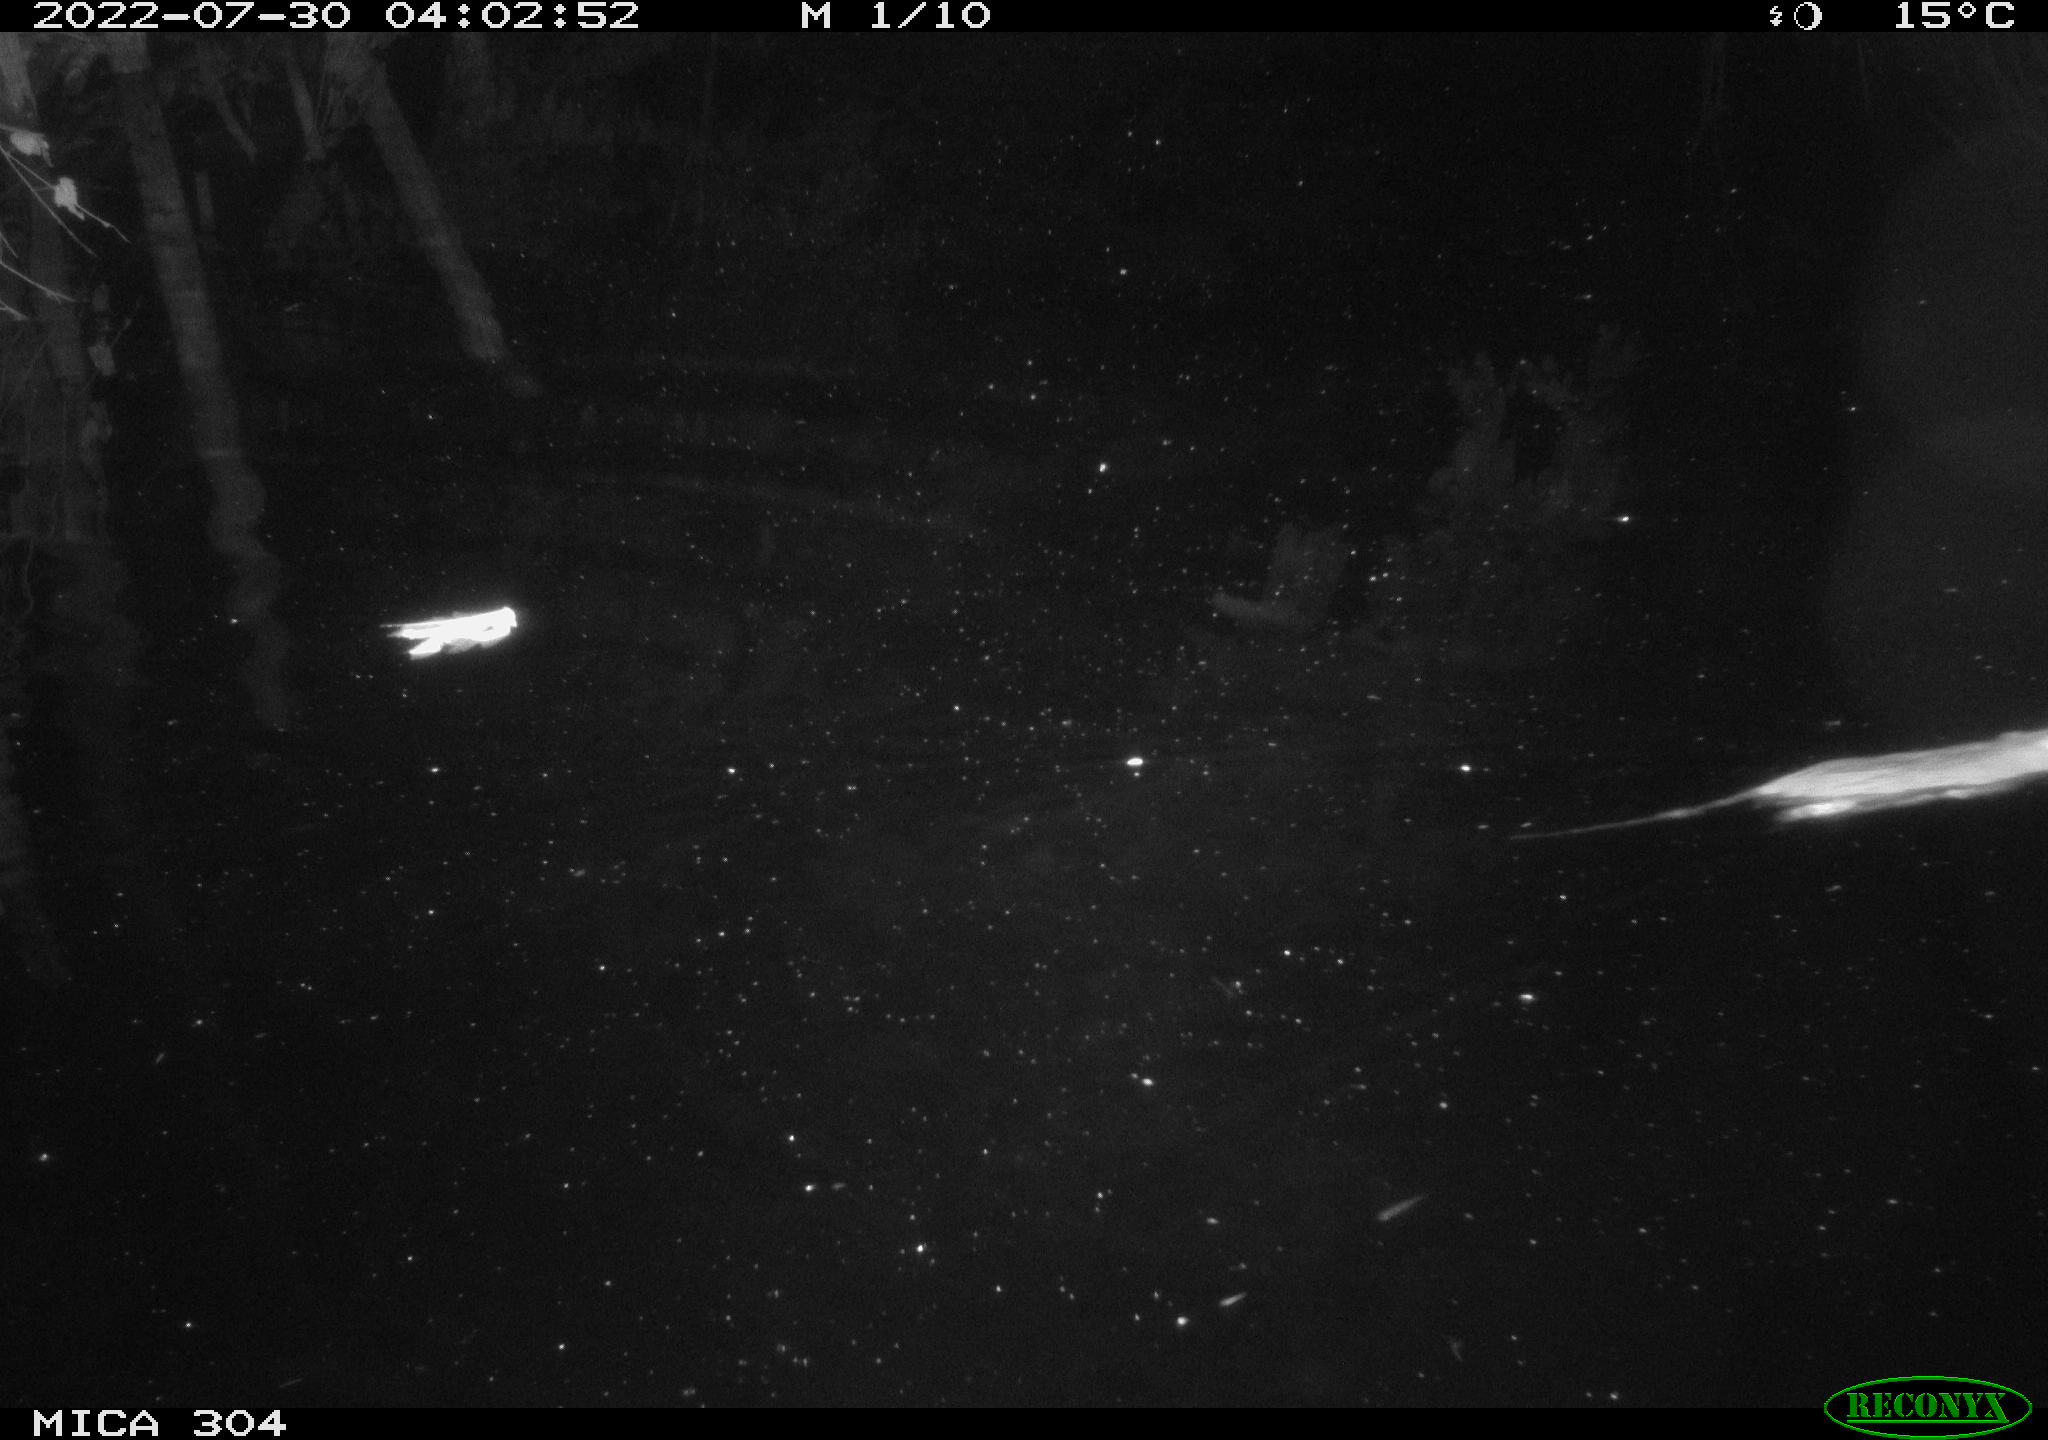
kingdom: Animalia
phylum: Chordata
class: Mammalia
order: Rodentia
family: Muridae
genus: Rattus
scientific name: Rattus norvegicus
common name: Brown rat
